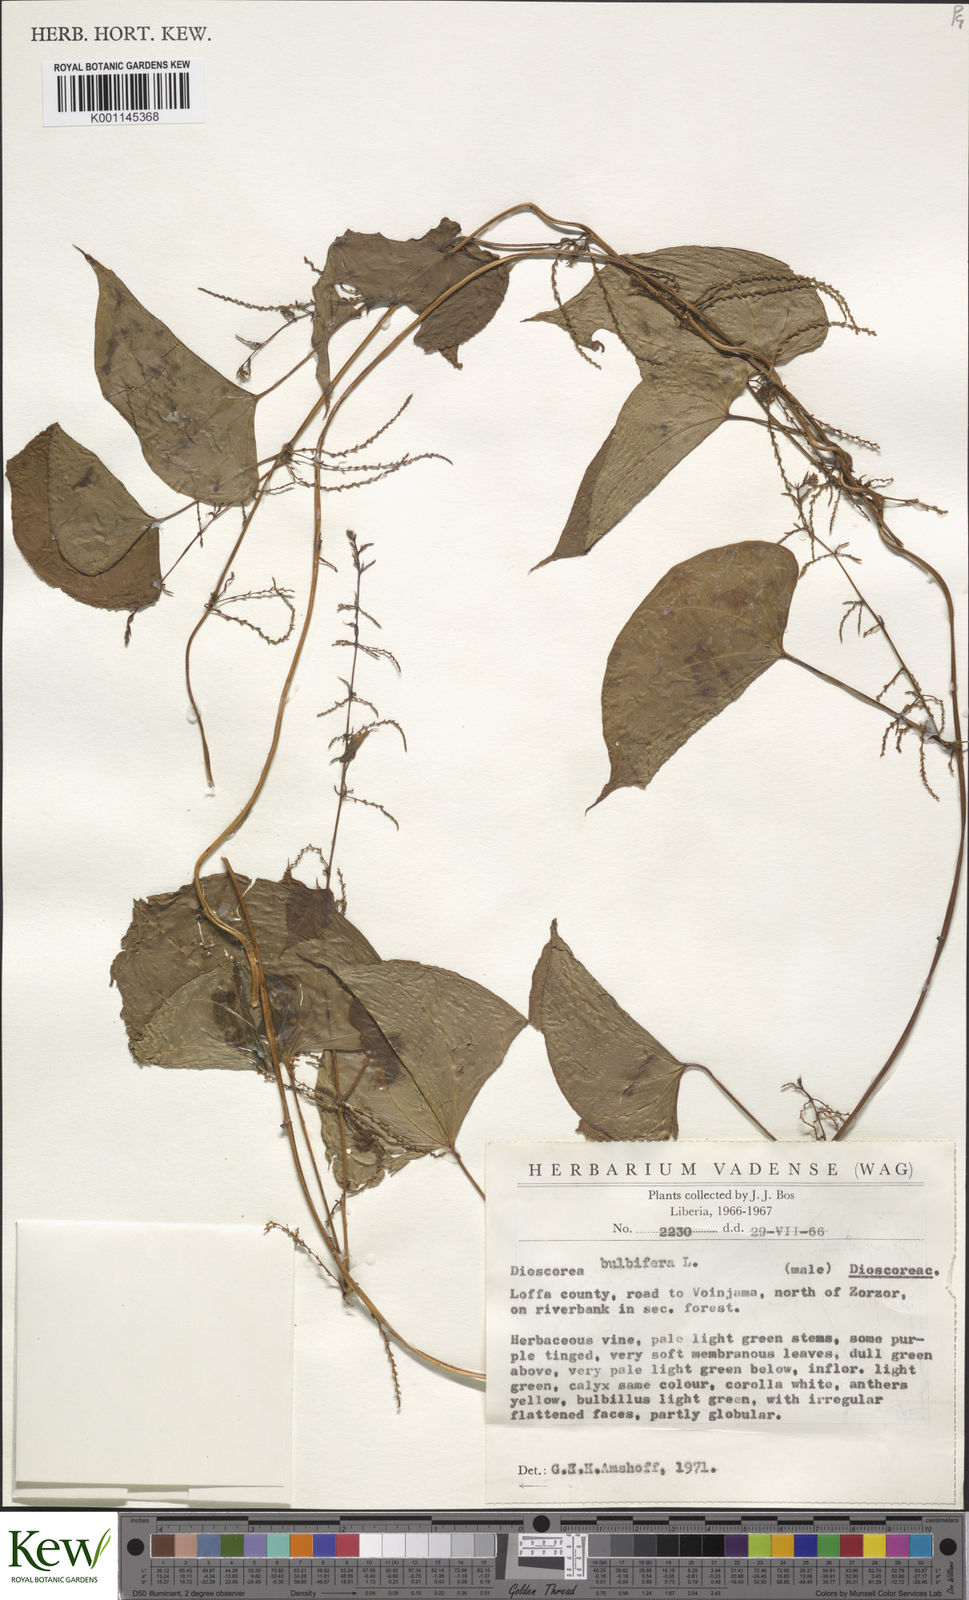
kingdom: Plantae
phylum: Tracheophyta
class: Liliopsida
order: Dioscoreales
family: Dioscoreaceae
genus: Dioscorea
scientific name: Dioscorea bulbifera
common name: Air yam
